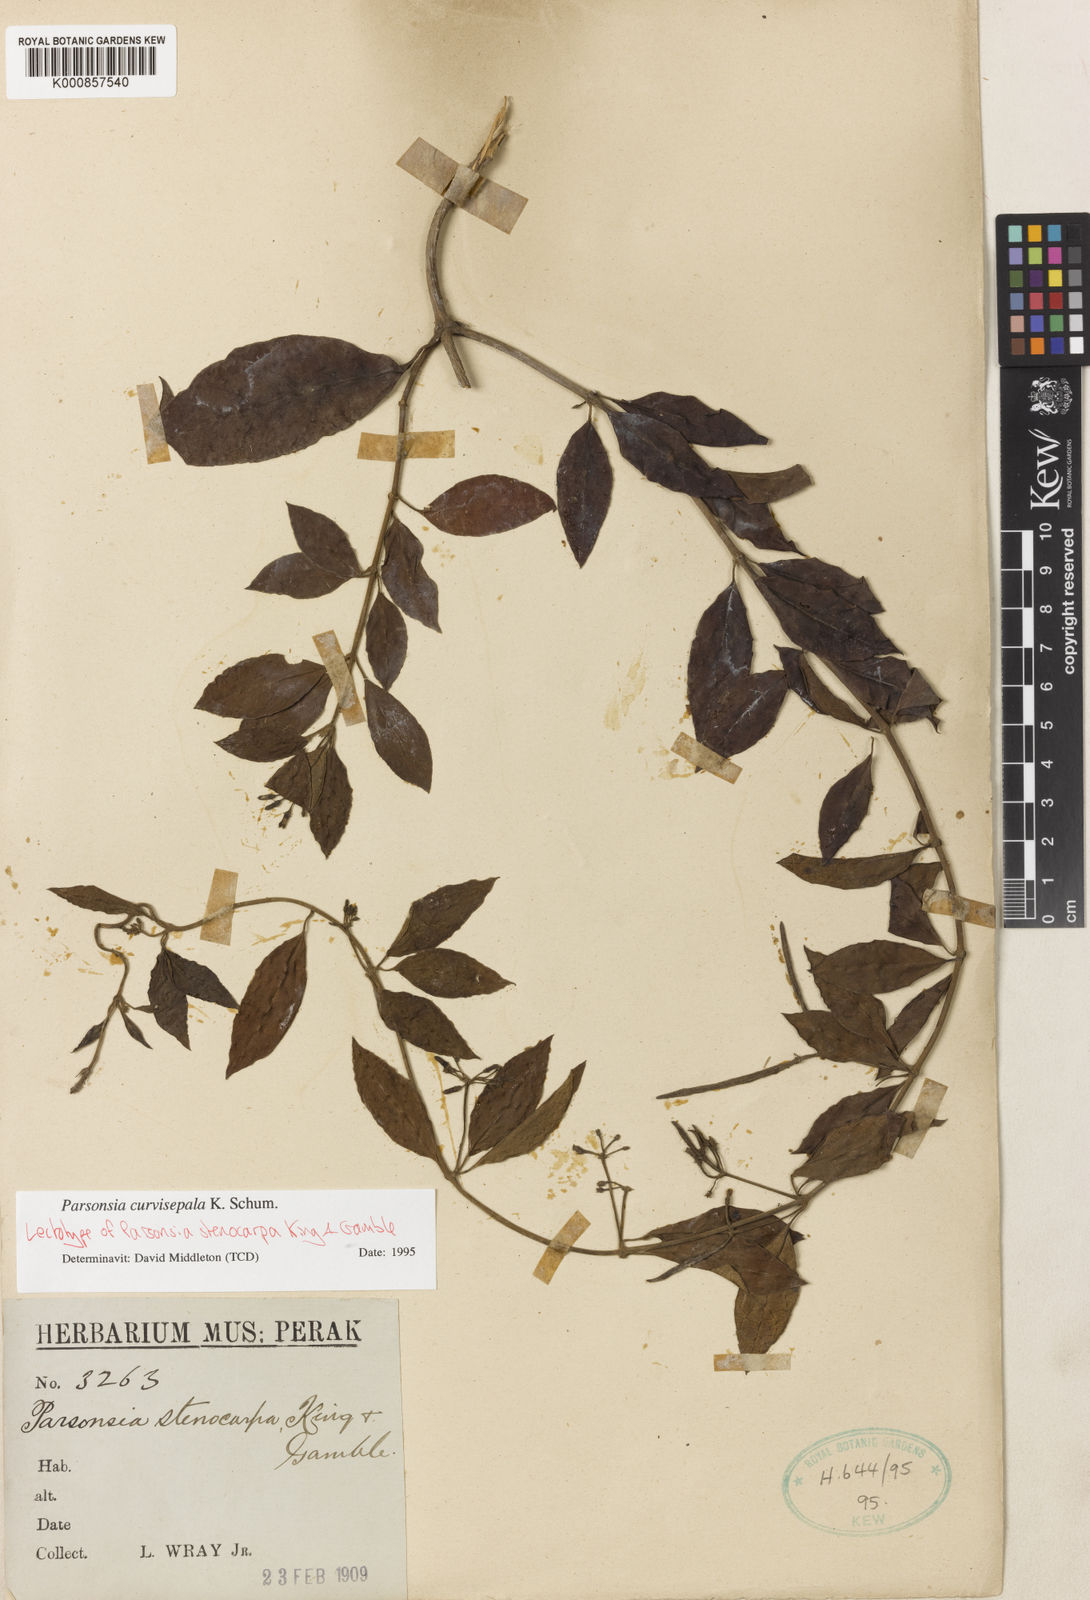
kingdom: Plantae
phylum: Tracheophyta
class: Magnoliopsida
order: Gentianales
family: Apocynaceae
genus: Parsonsia
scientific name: Parsonsia curvisepala
